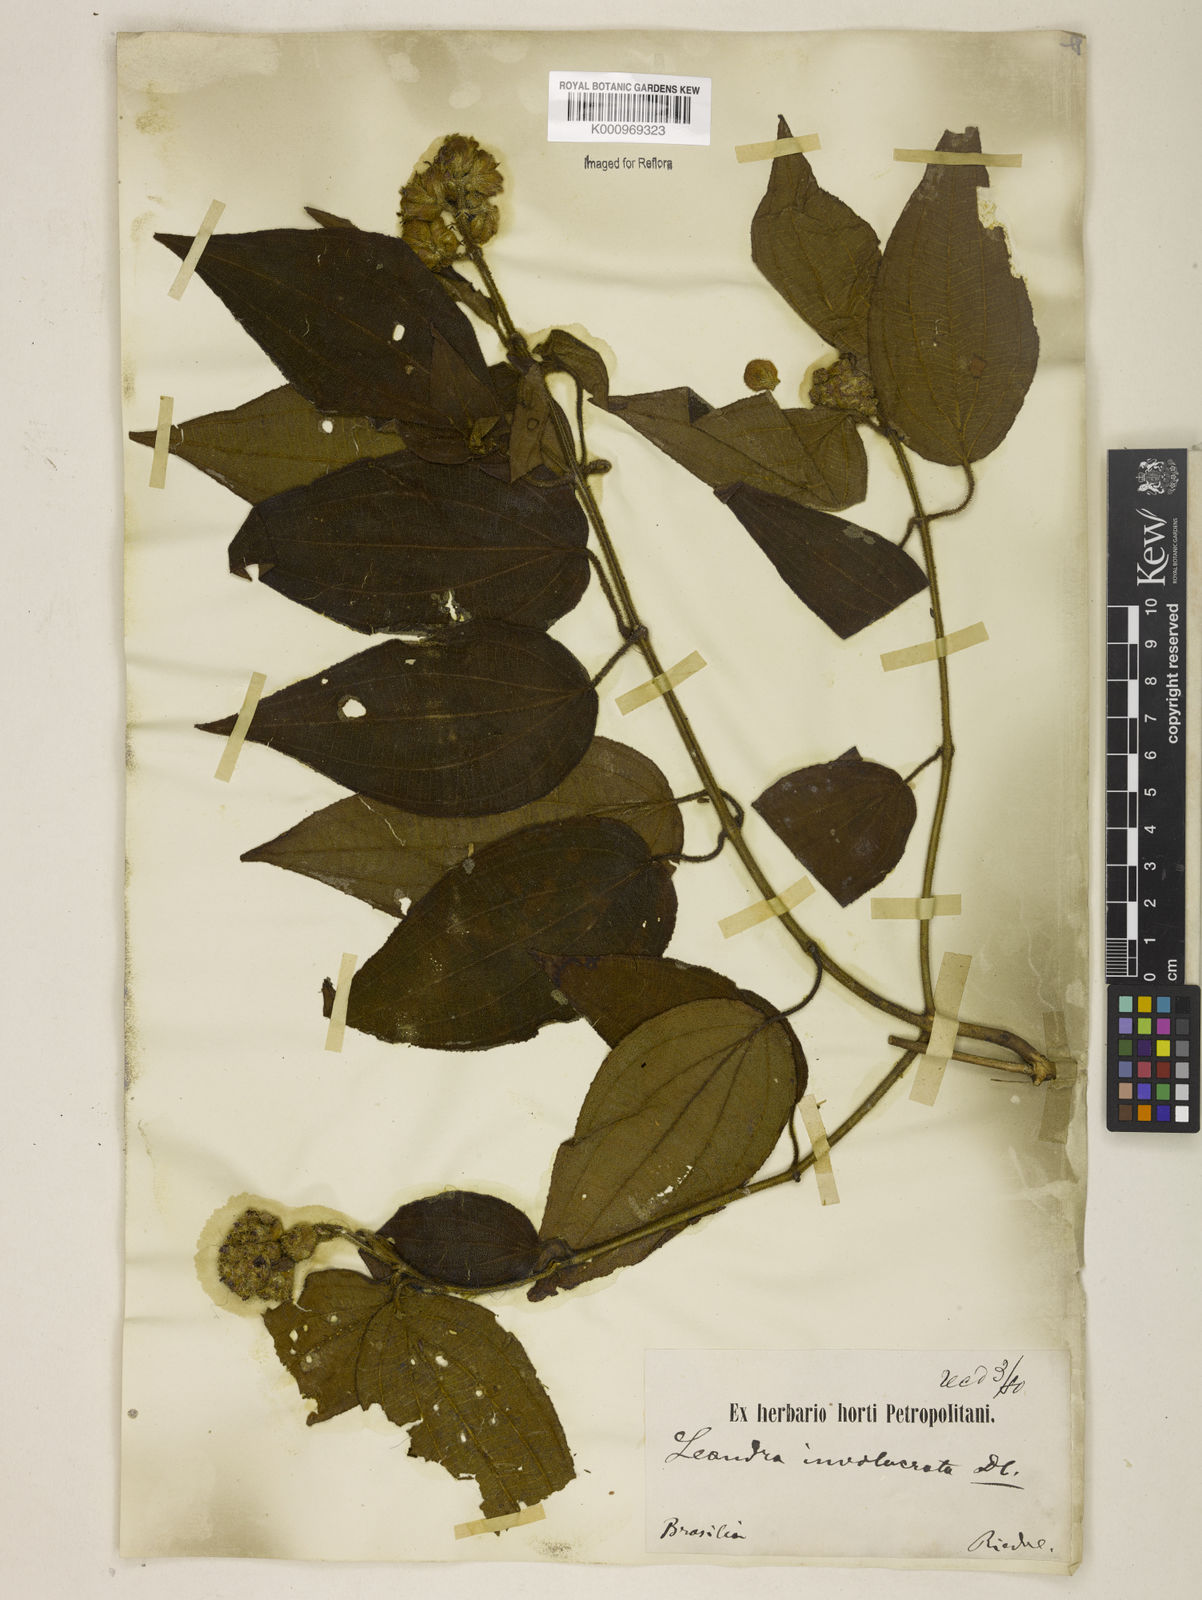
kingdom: Plantae
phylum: Tracheophyta
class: Magnoliopsida
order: Myrtales
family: Melastomataceae
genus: Miconia
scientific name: Miconia leaumbellata
